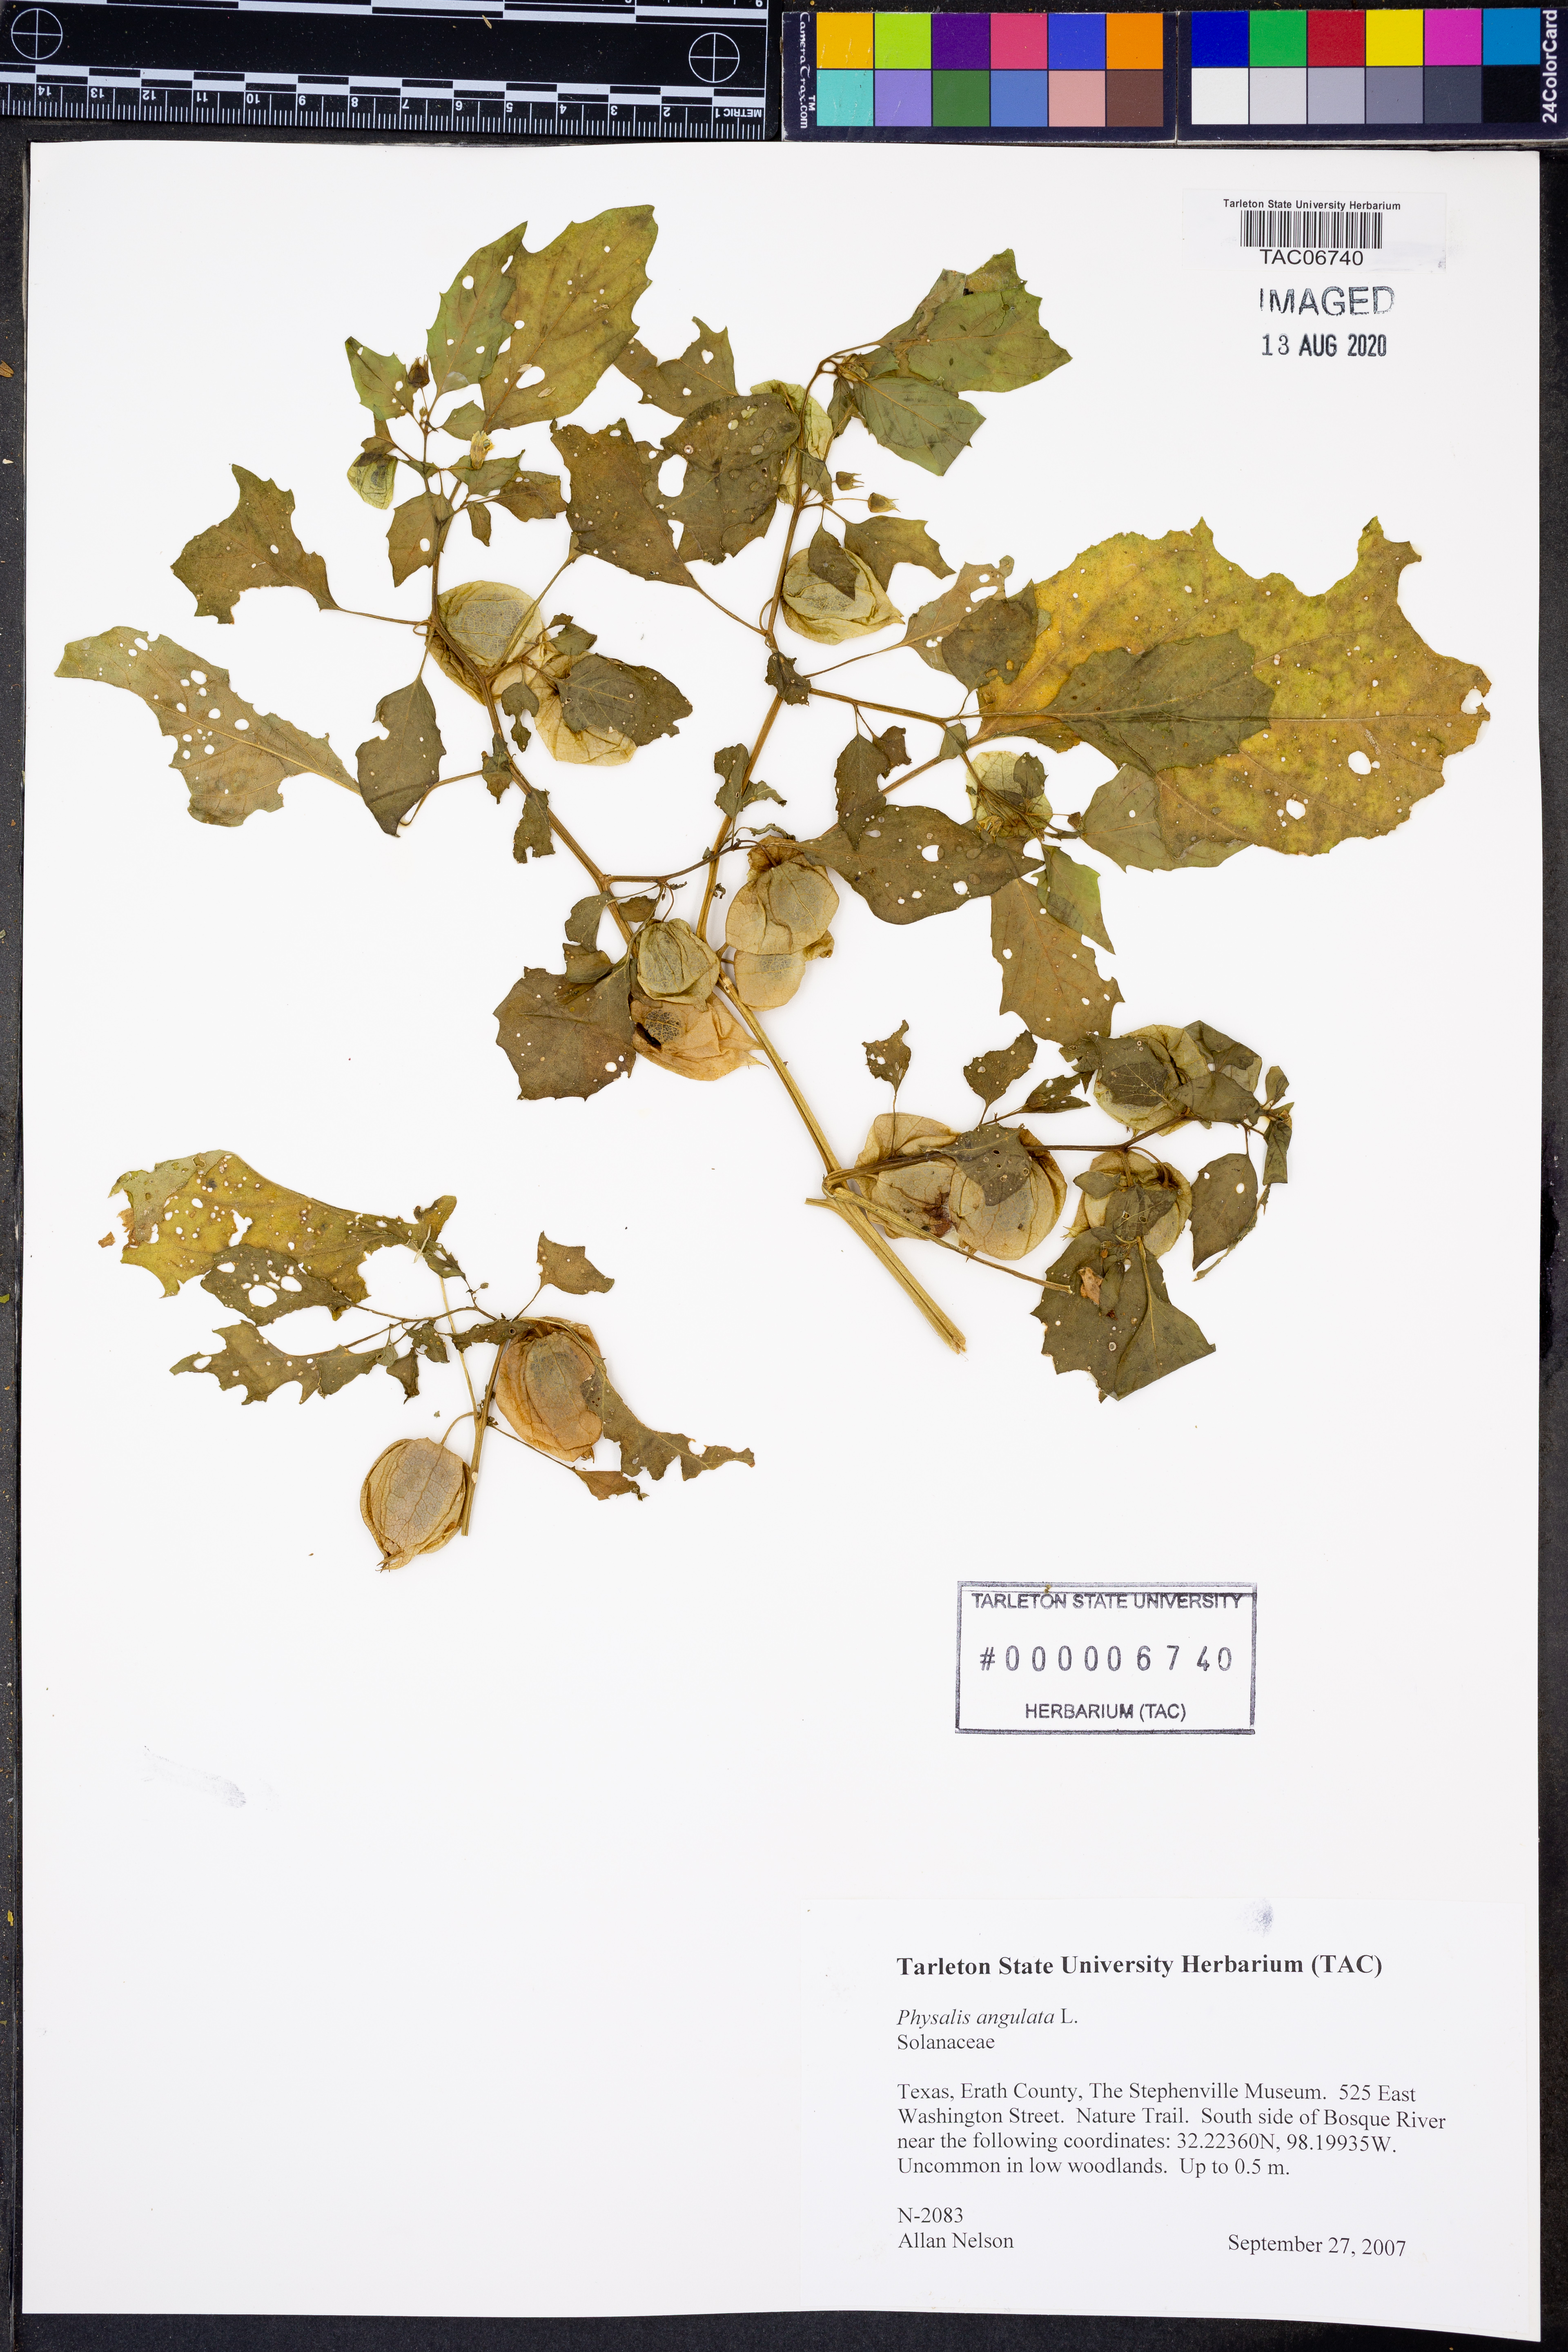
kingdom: Plantae
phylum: Tracheophyta
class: Magnoliopsida
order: Solanales
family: Solanaceae
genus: Physalis
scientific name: Physalis angulata
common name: Angular winter-cherry
